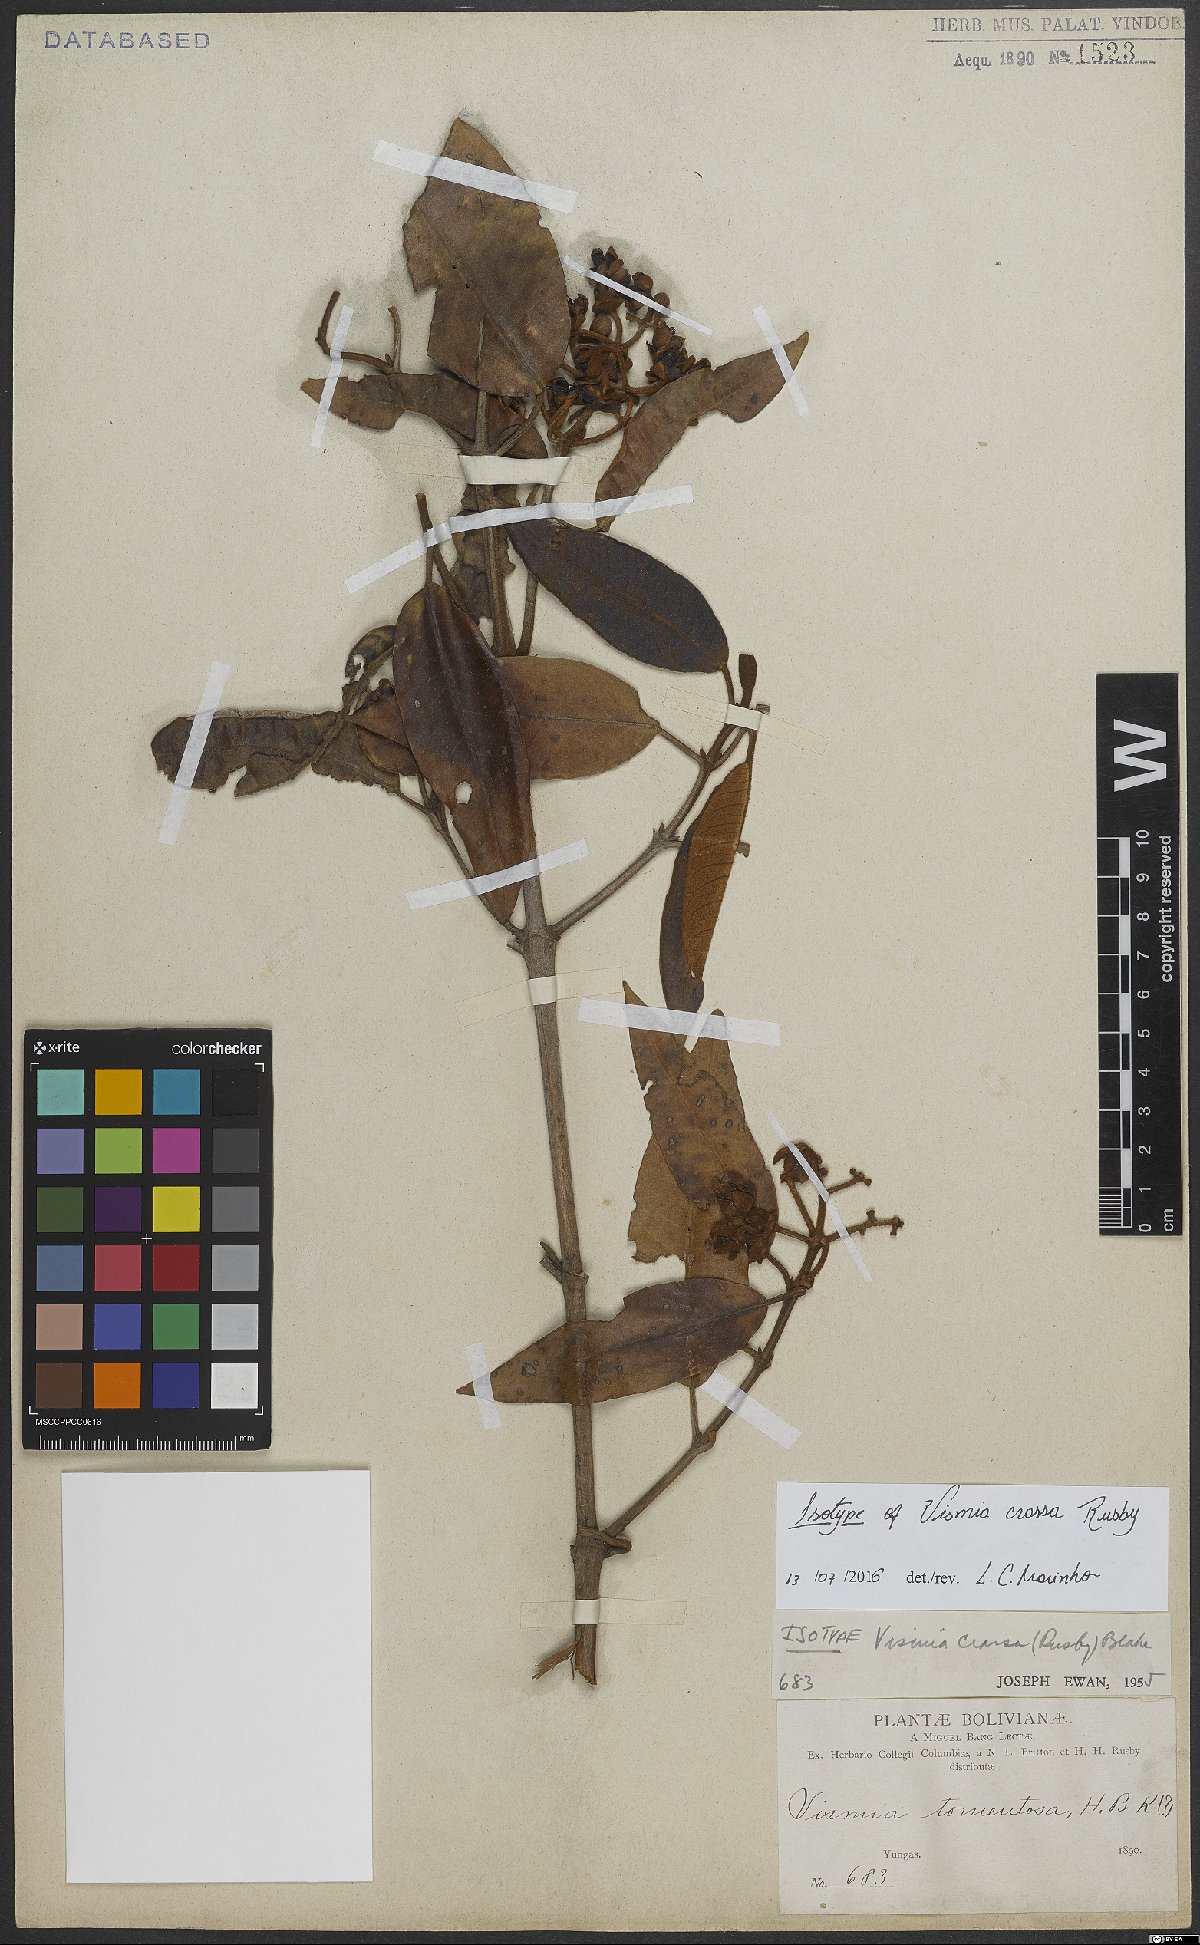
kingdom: Plantae
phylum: Tracheophyta
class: Magnoliopsida
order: Malpighiales
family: Hypericaceae
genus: Vismia
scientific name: Vismia crassa
